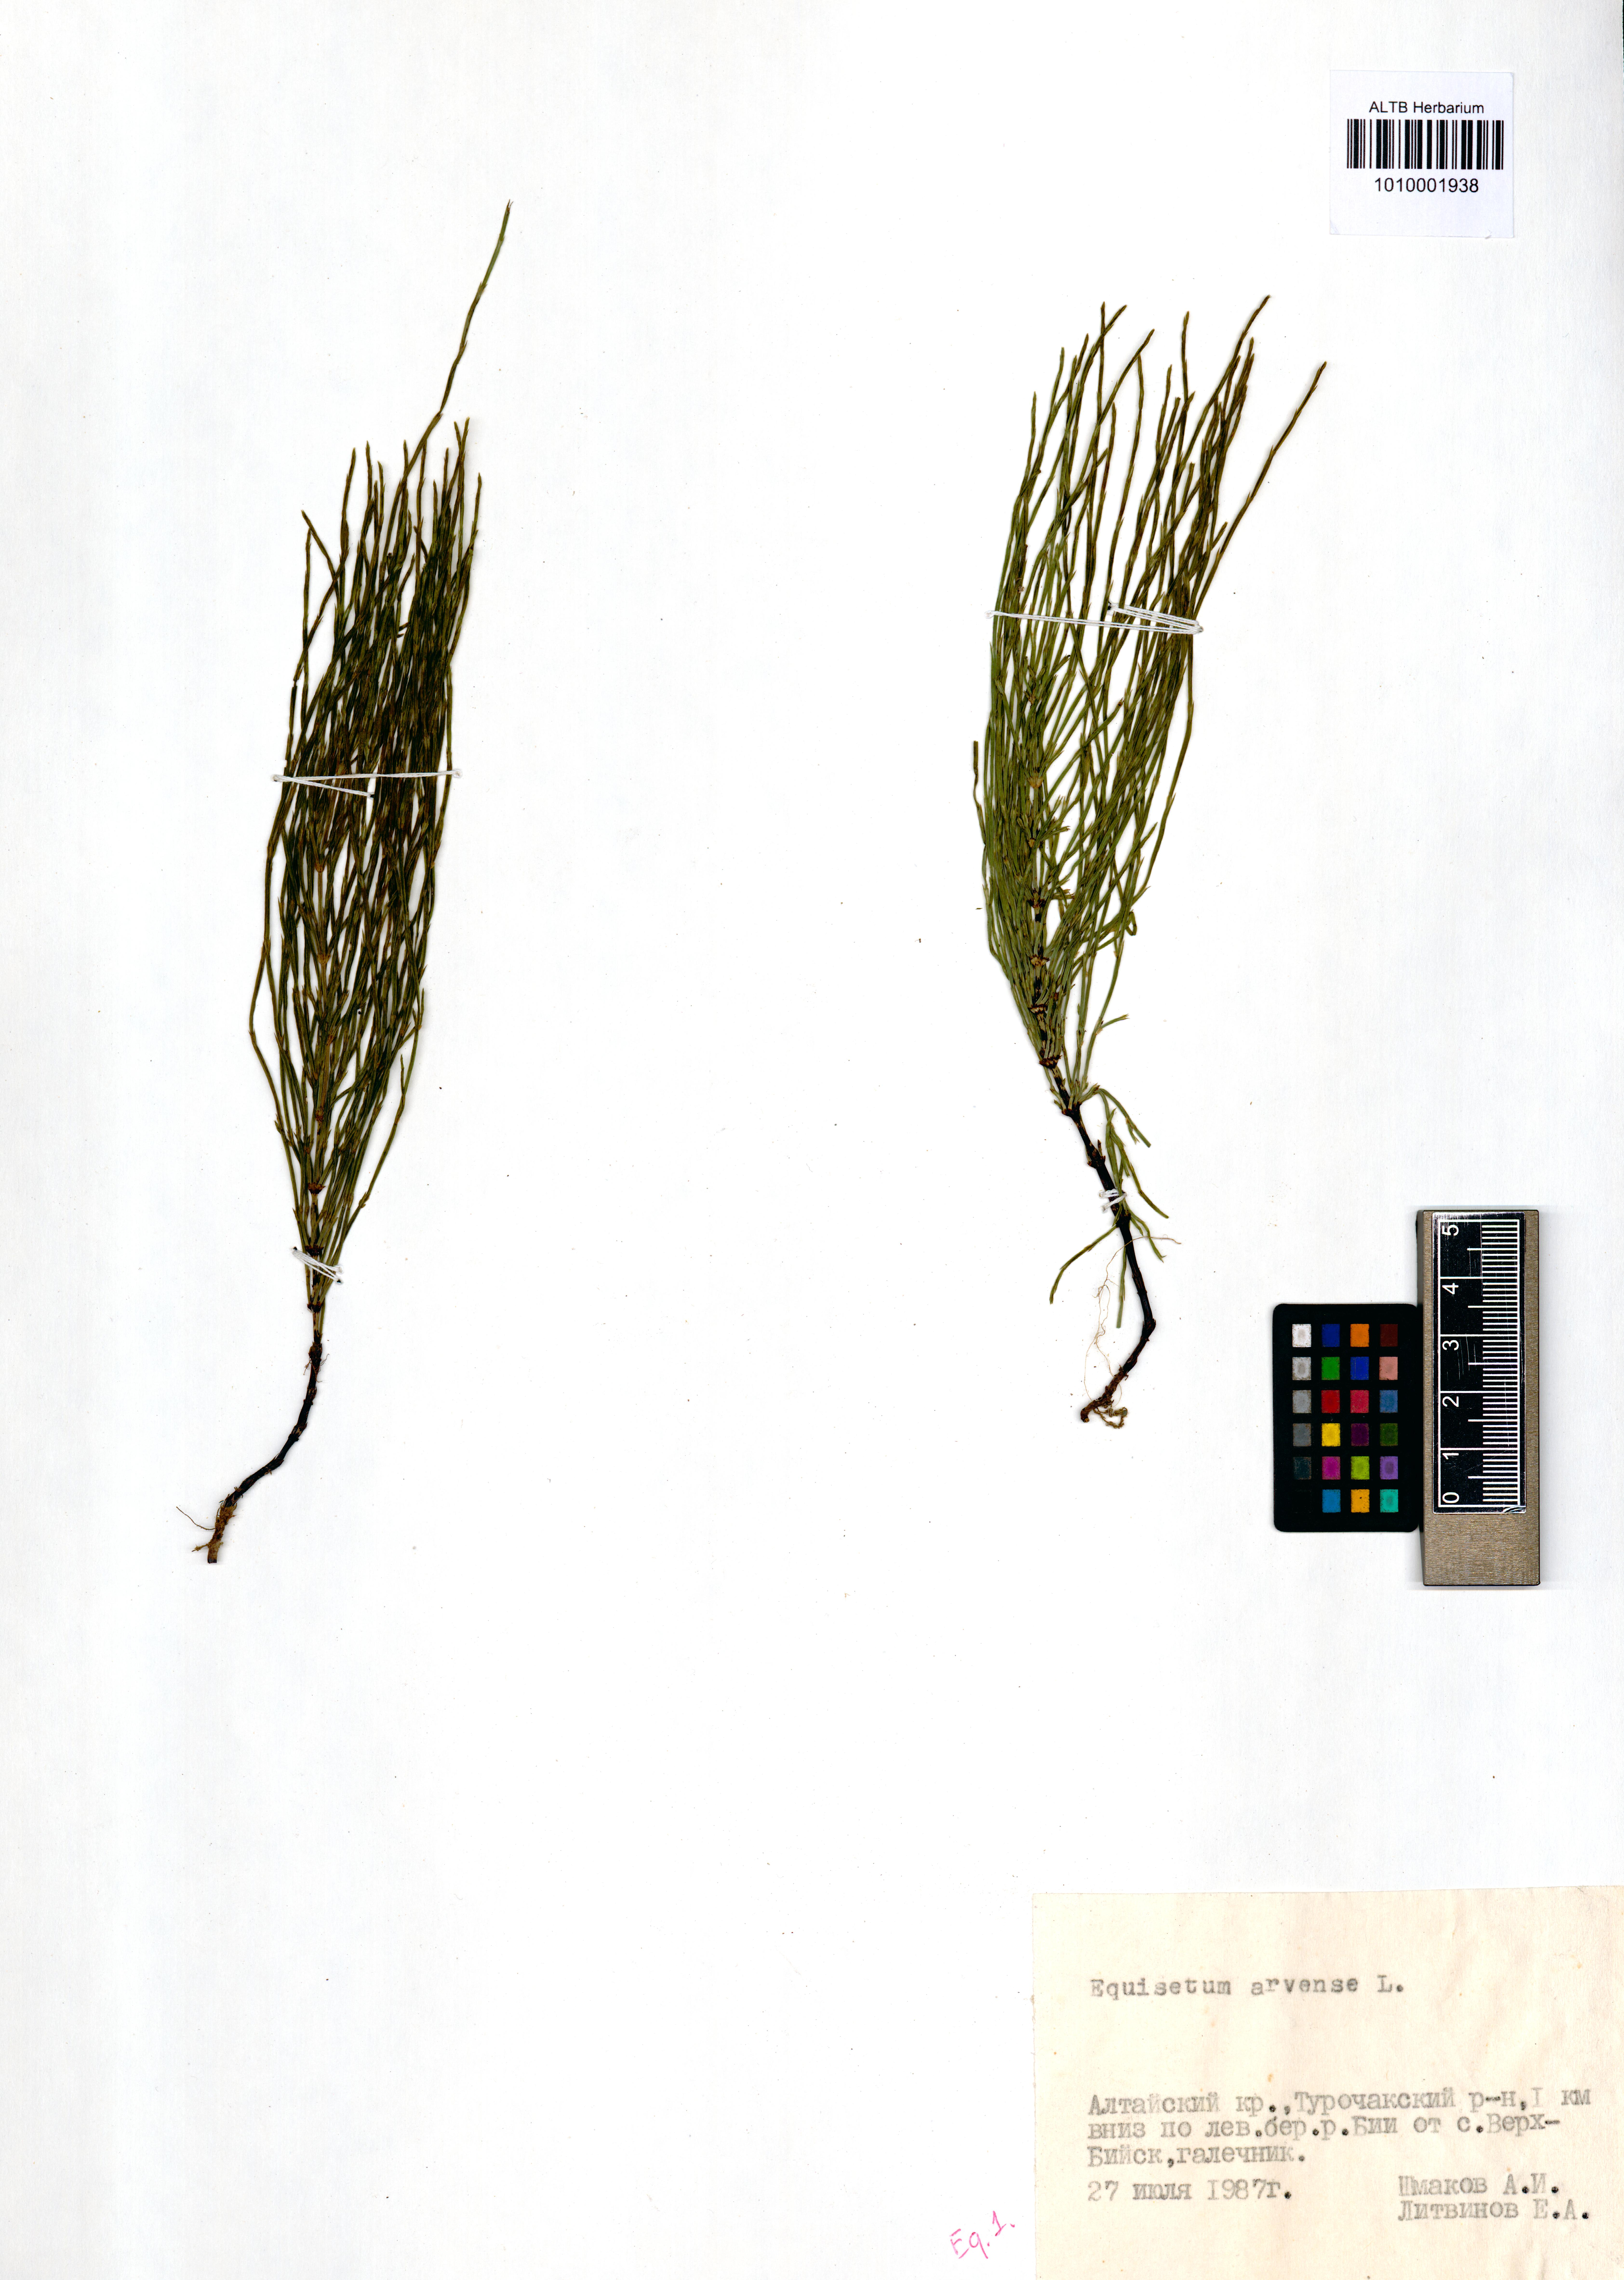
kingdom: Plantae
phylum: Tracheophyta
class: Polypodiopsida
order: Equisetales
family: Equisetaceae
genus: Equisetum
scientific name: Equisetum arvense
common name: Field horsetail
